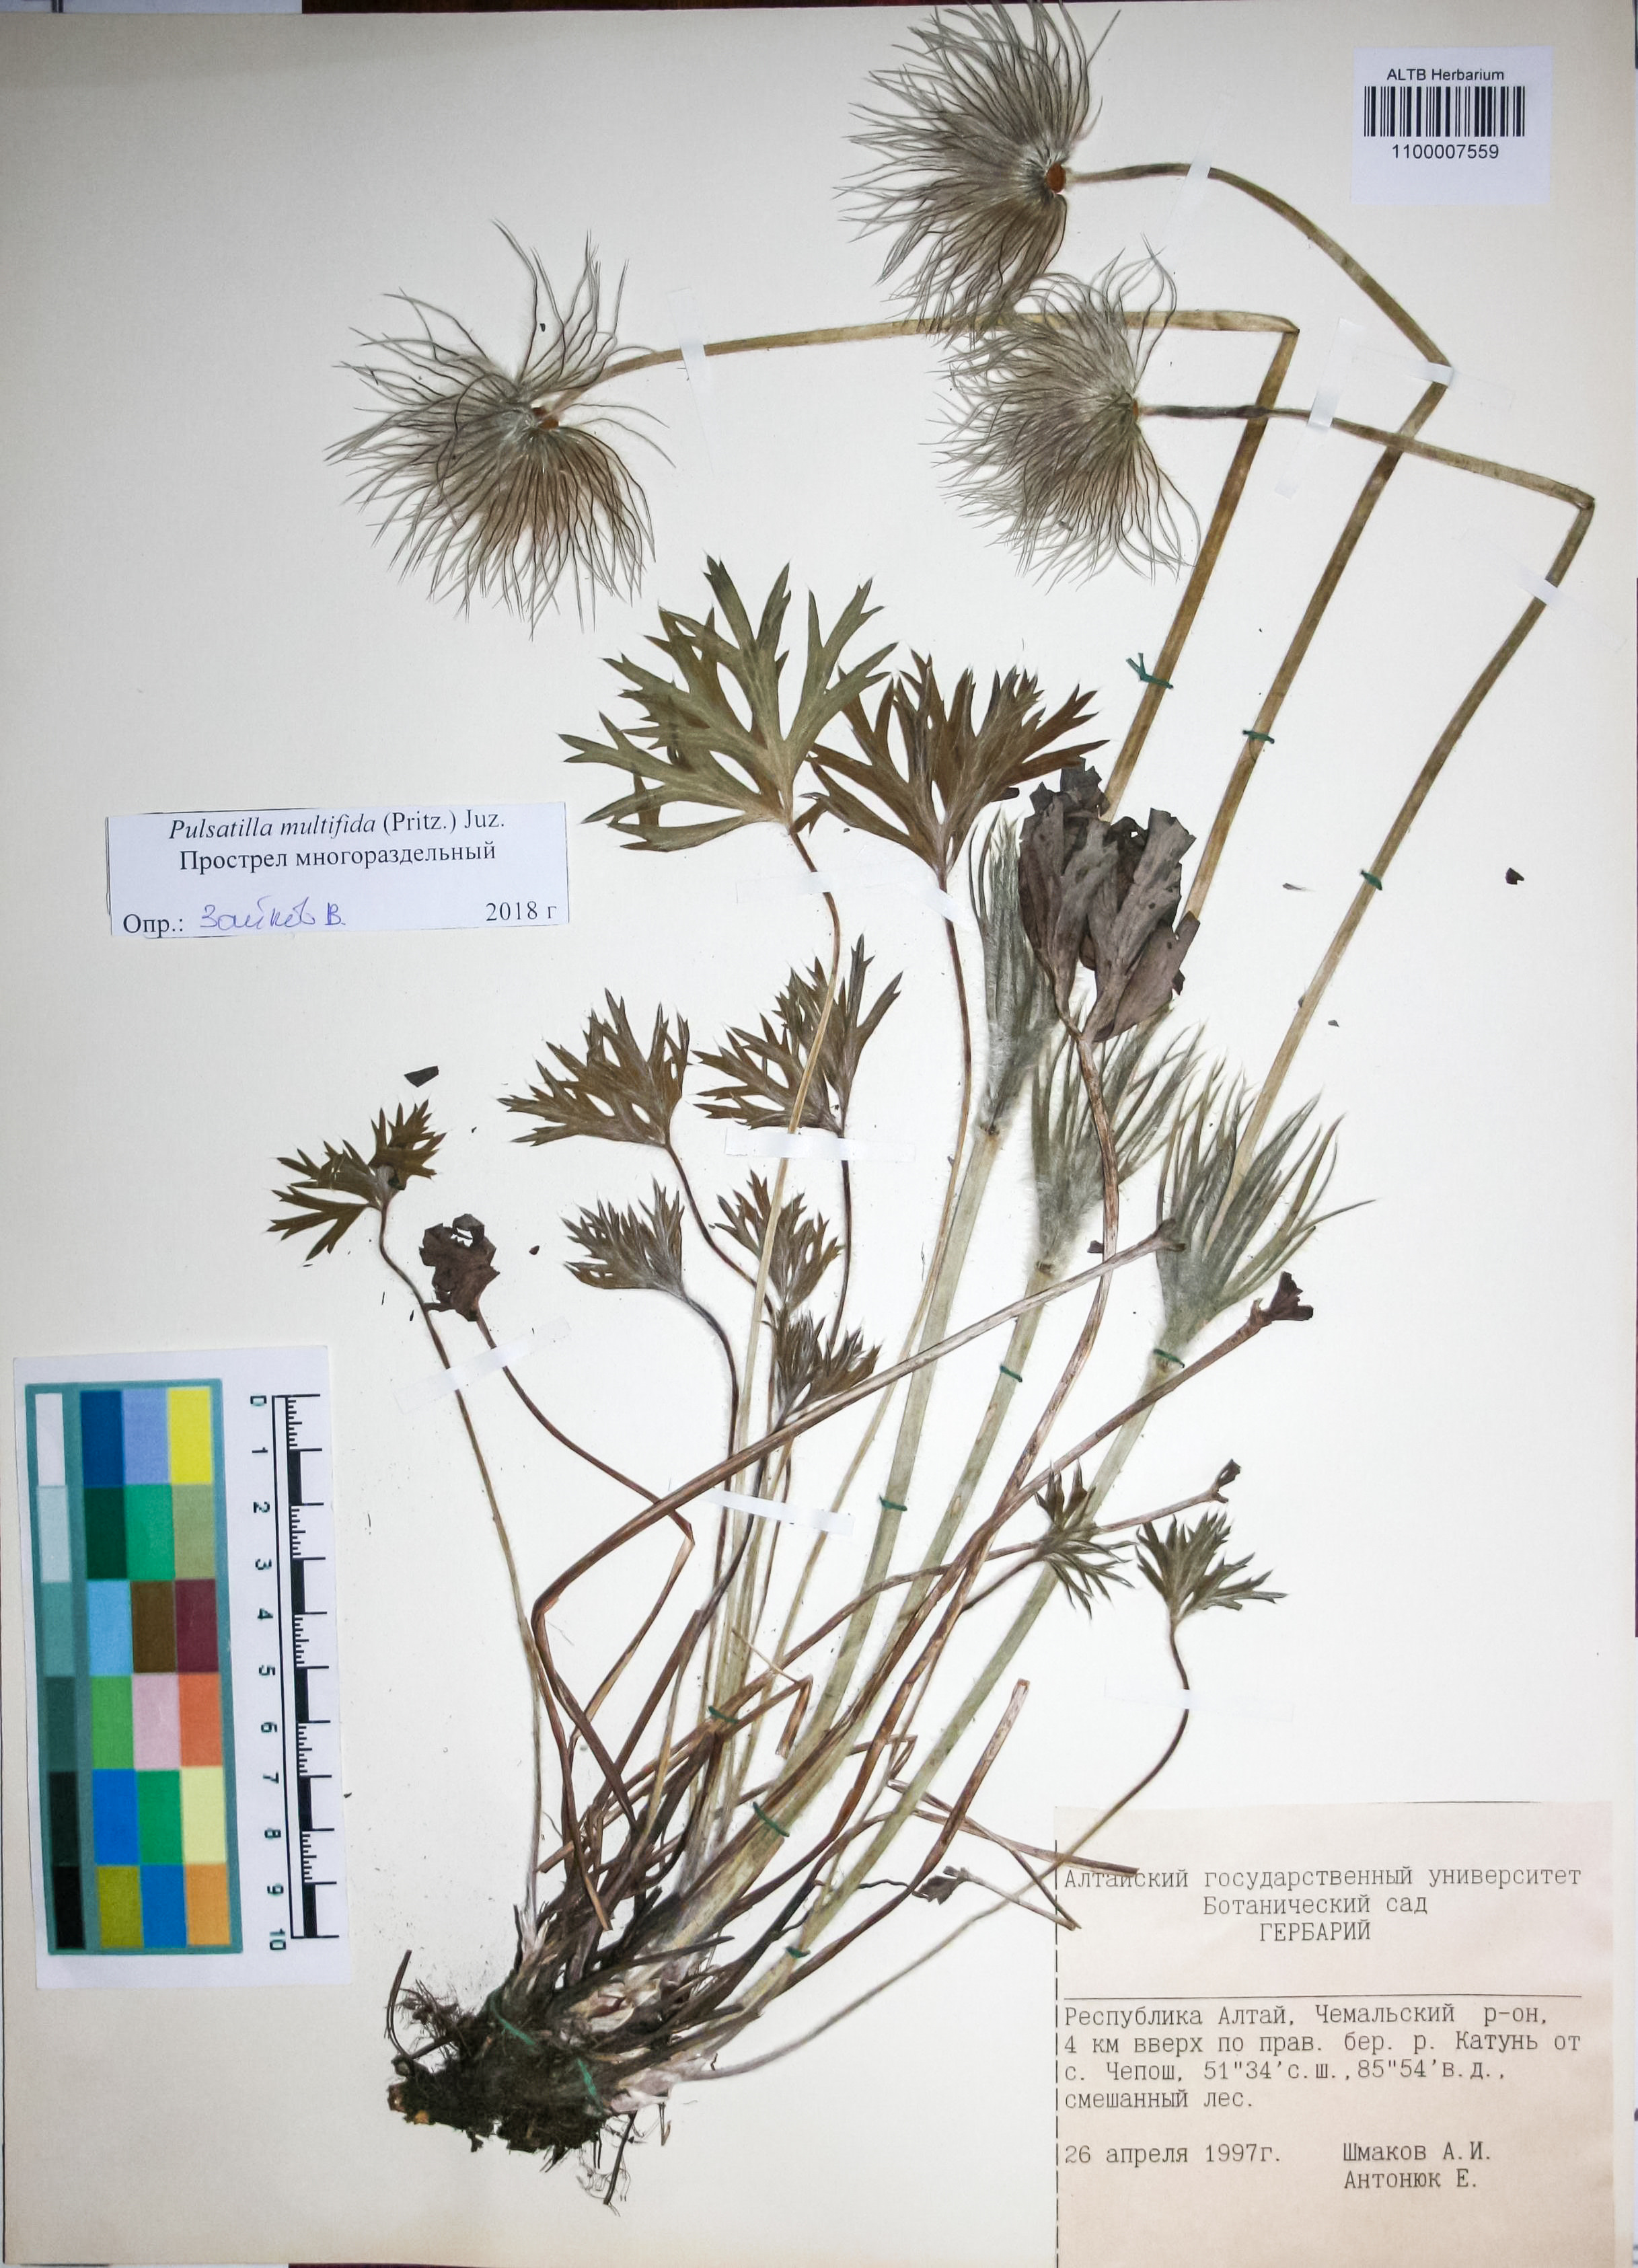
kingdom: Plantae
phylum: Tracheophyta
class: Magnoliopsida
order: Ranunculales
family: Ranunculaceae
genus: Pulsatilla
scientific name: Pulsatilla patens
